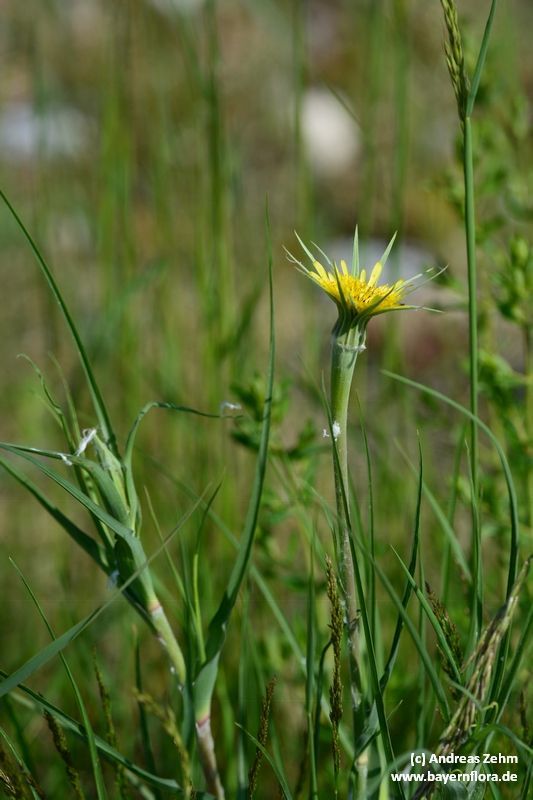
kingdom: Plantae
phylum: Tracheophyta
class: Magnoliopsida
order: Asterales
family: Asteraceae
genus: Tragopogon
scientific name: Tragopogon dubius
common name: Yellow salsify
